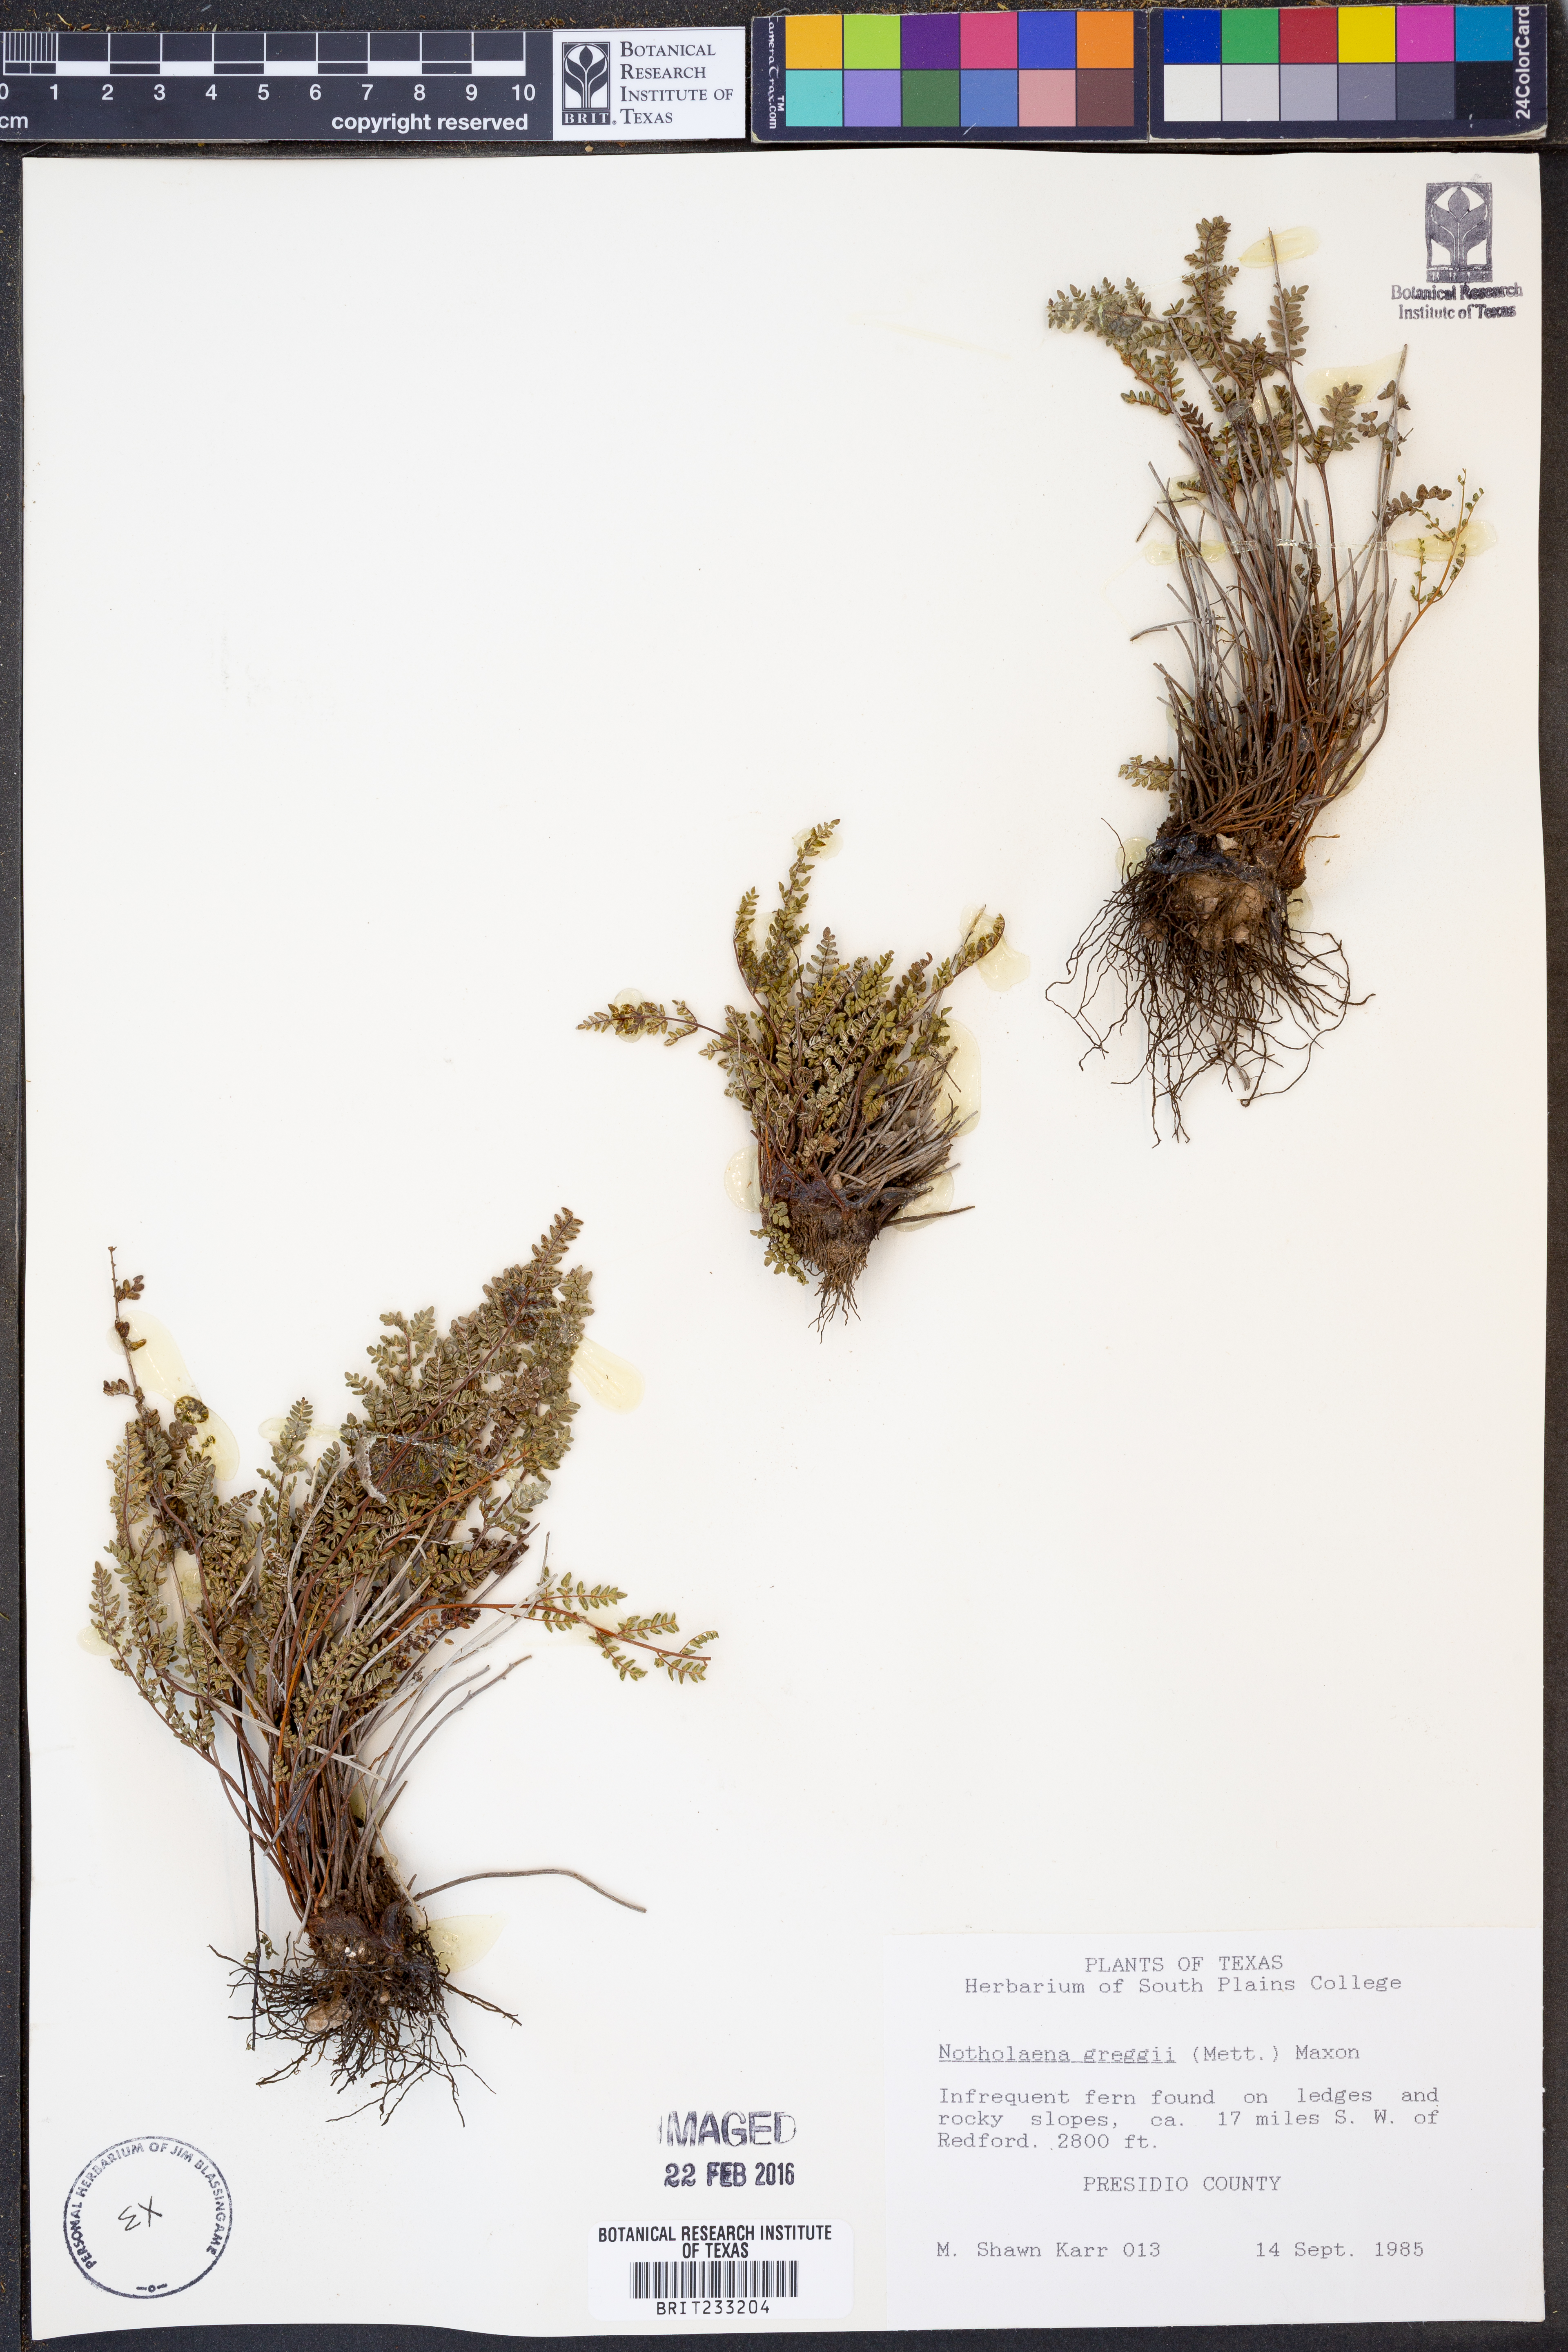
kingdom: Plantae
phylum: Tracheophyta
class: Polypodiopsida
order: Polypodiales
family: Pteridaceae
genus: Notholaena
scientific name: Notholaena greggii
